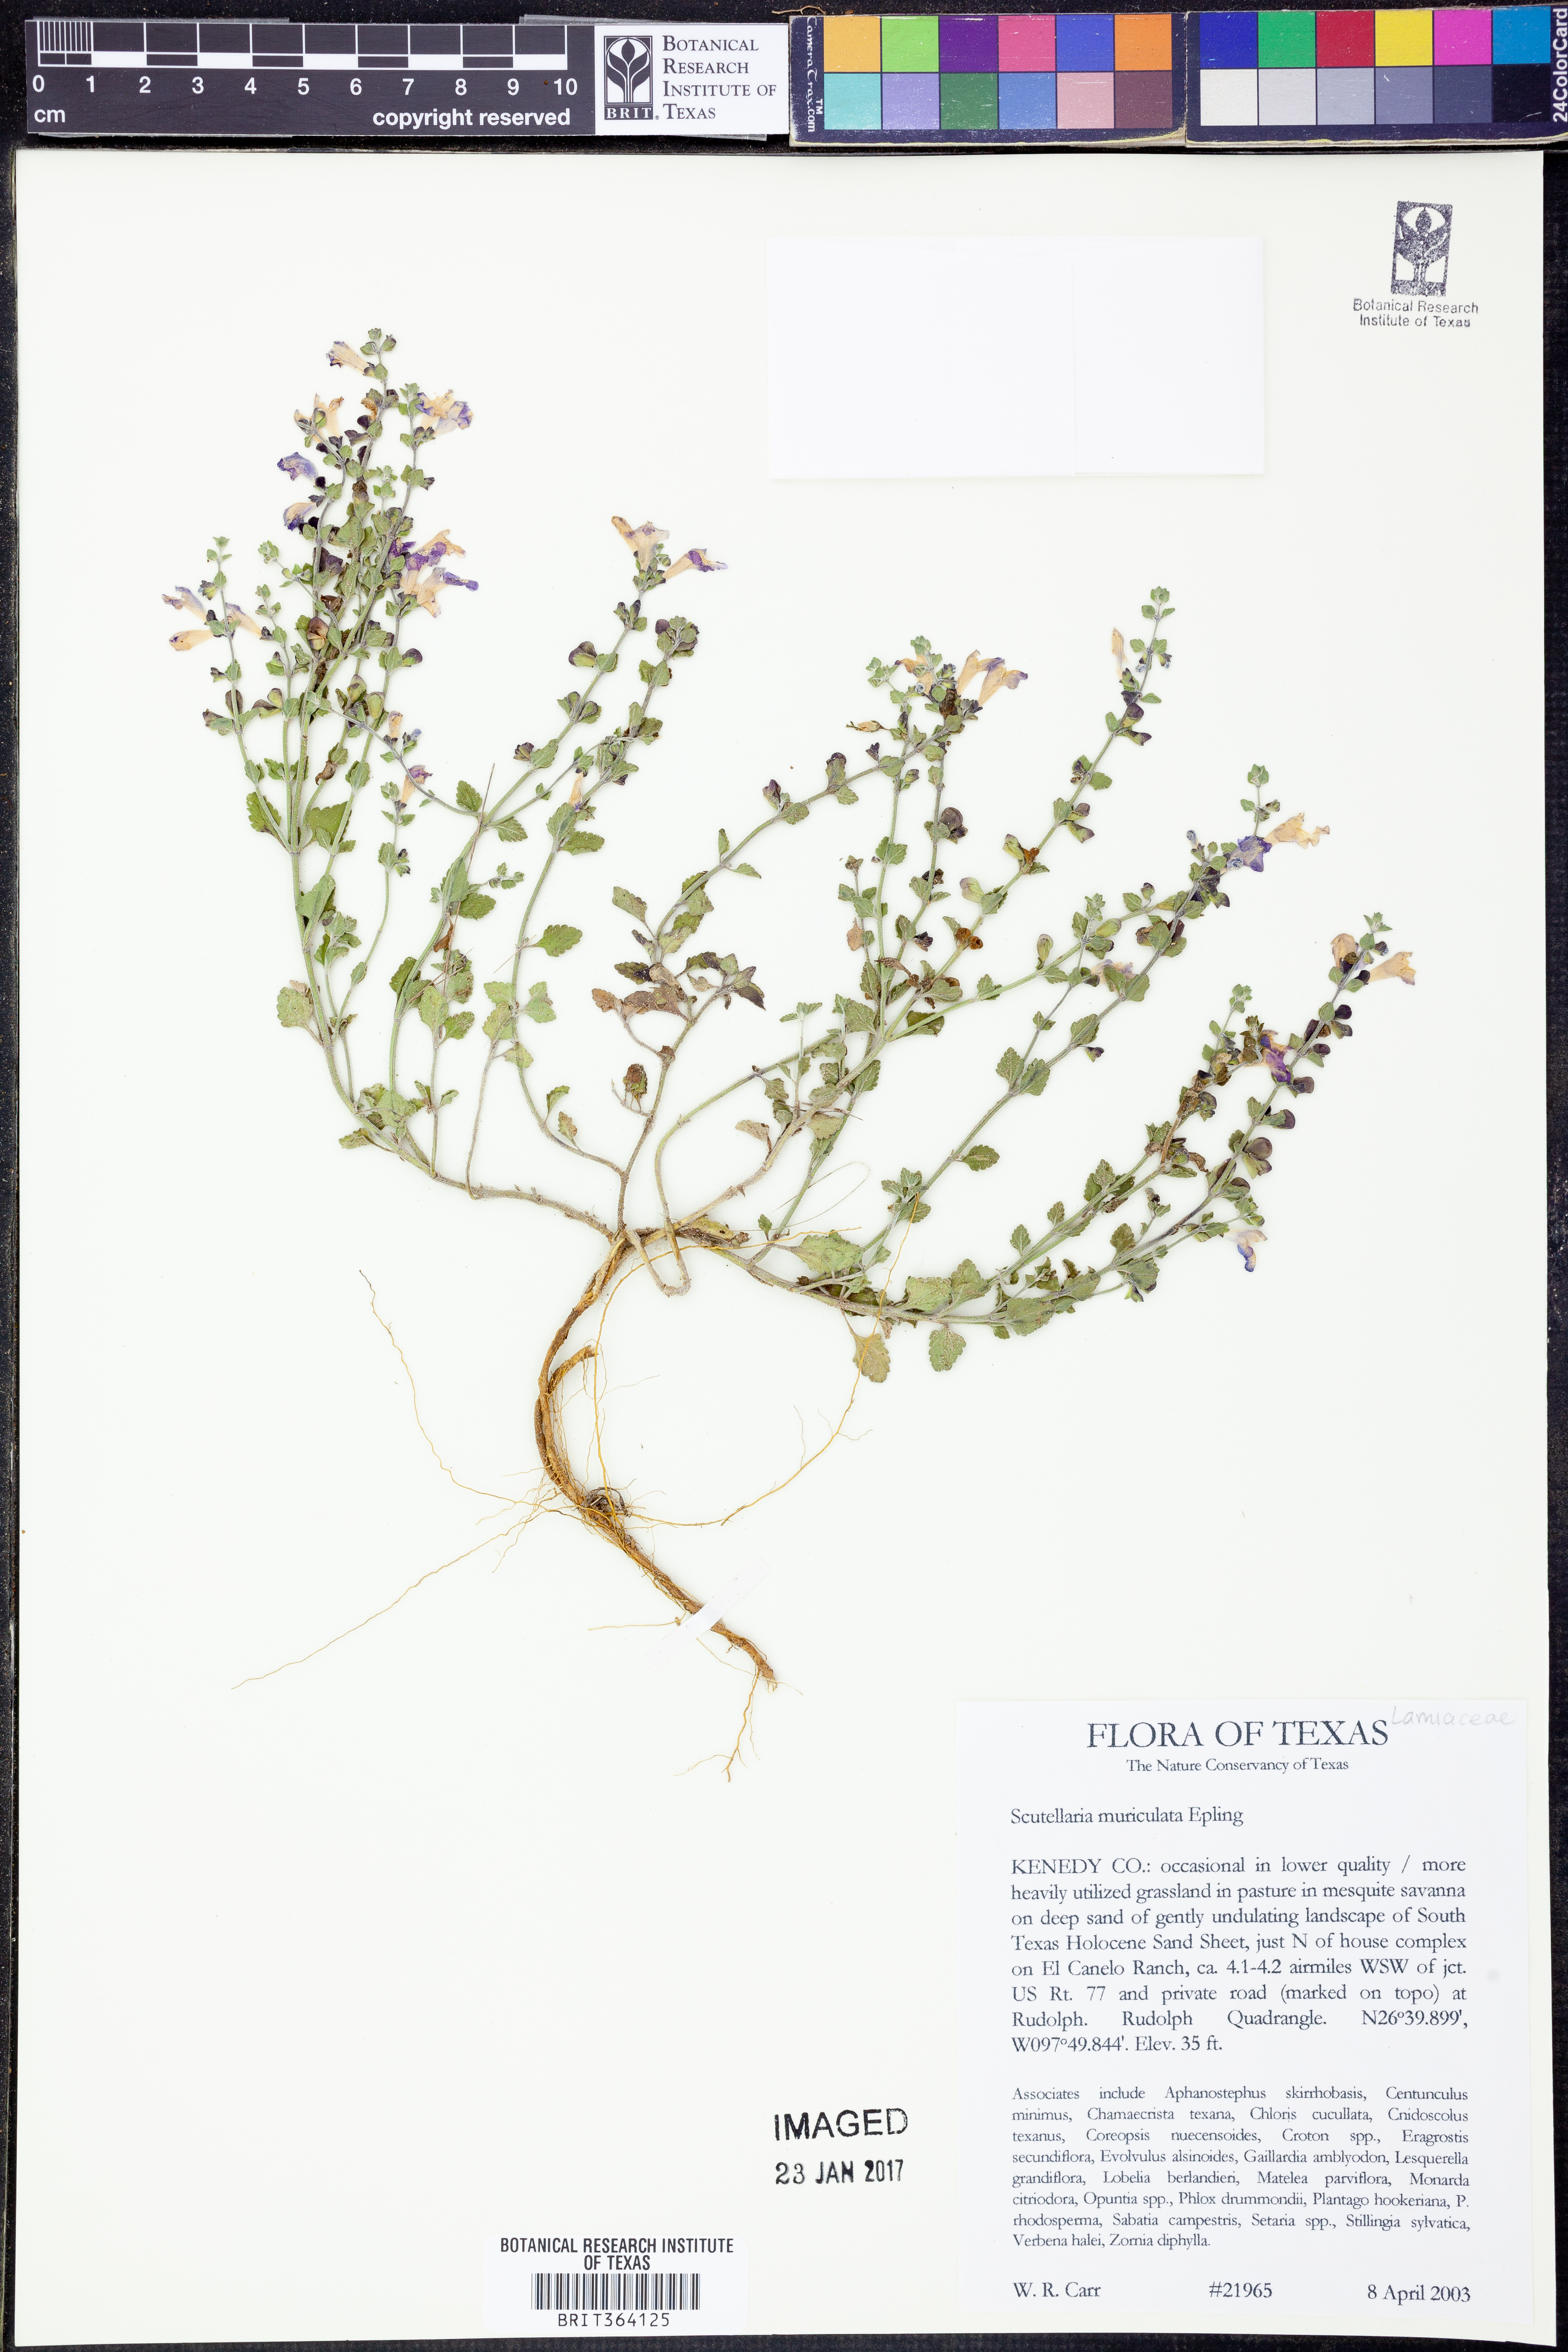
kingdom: Plantae
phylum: Tracheophyta
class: Magnoliopsida
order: Lamiales
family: Lamiaceae
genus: Scutellaria
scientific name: Scutellaria muriculata
